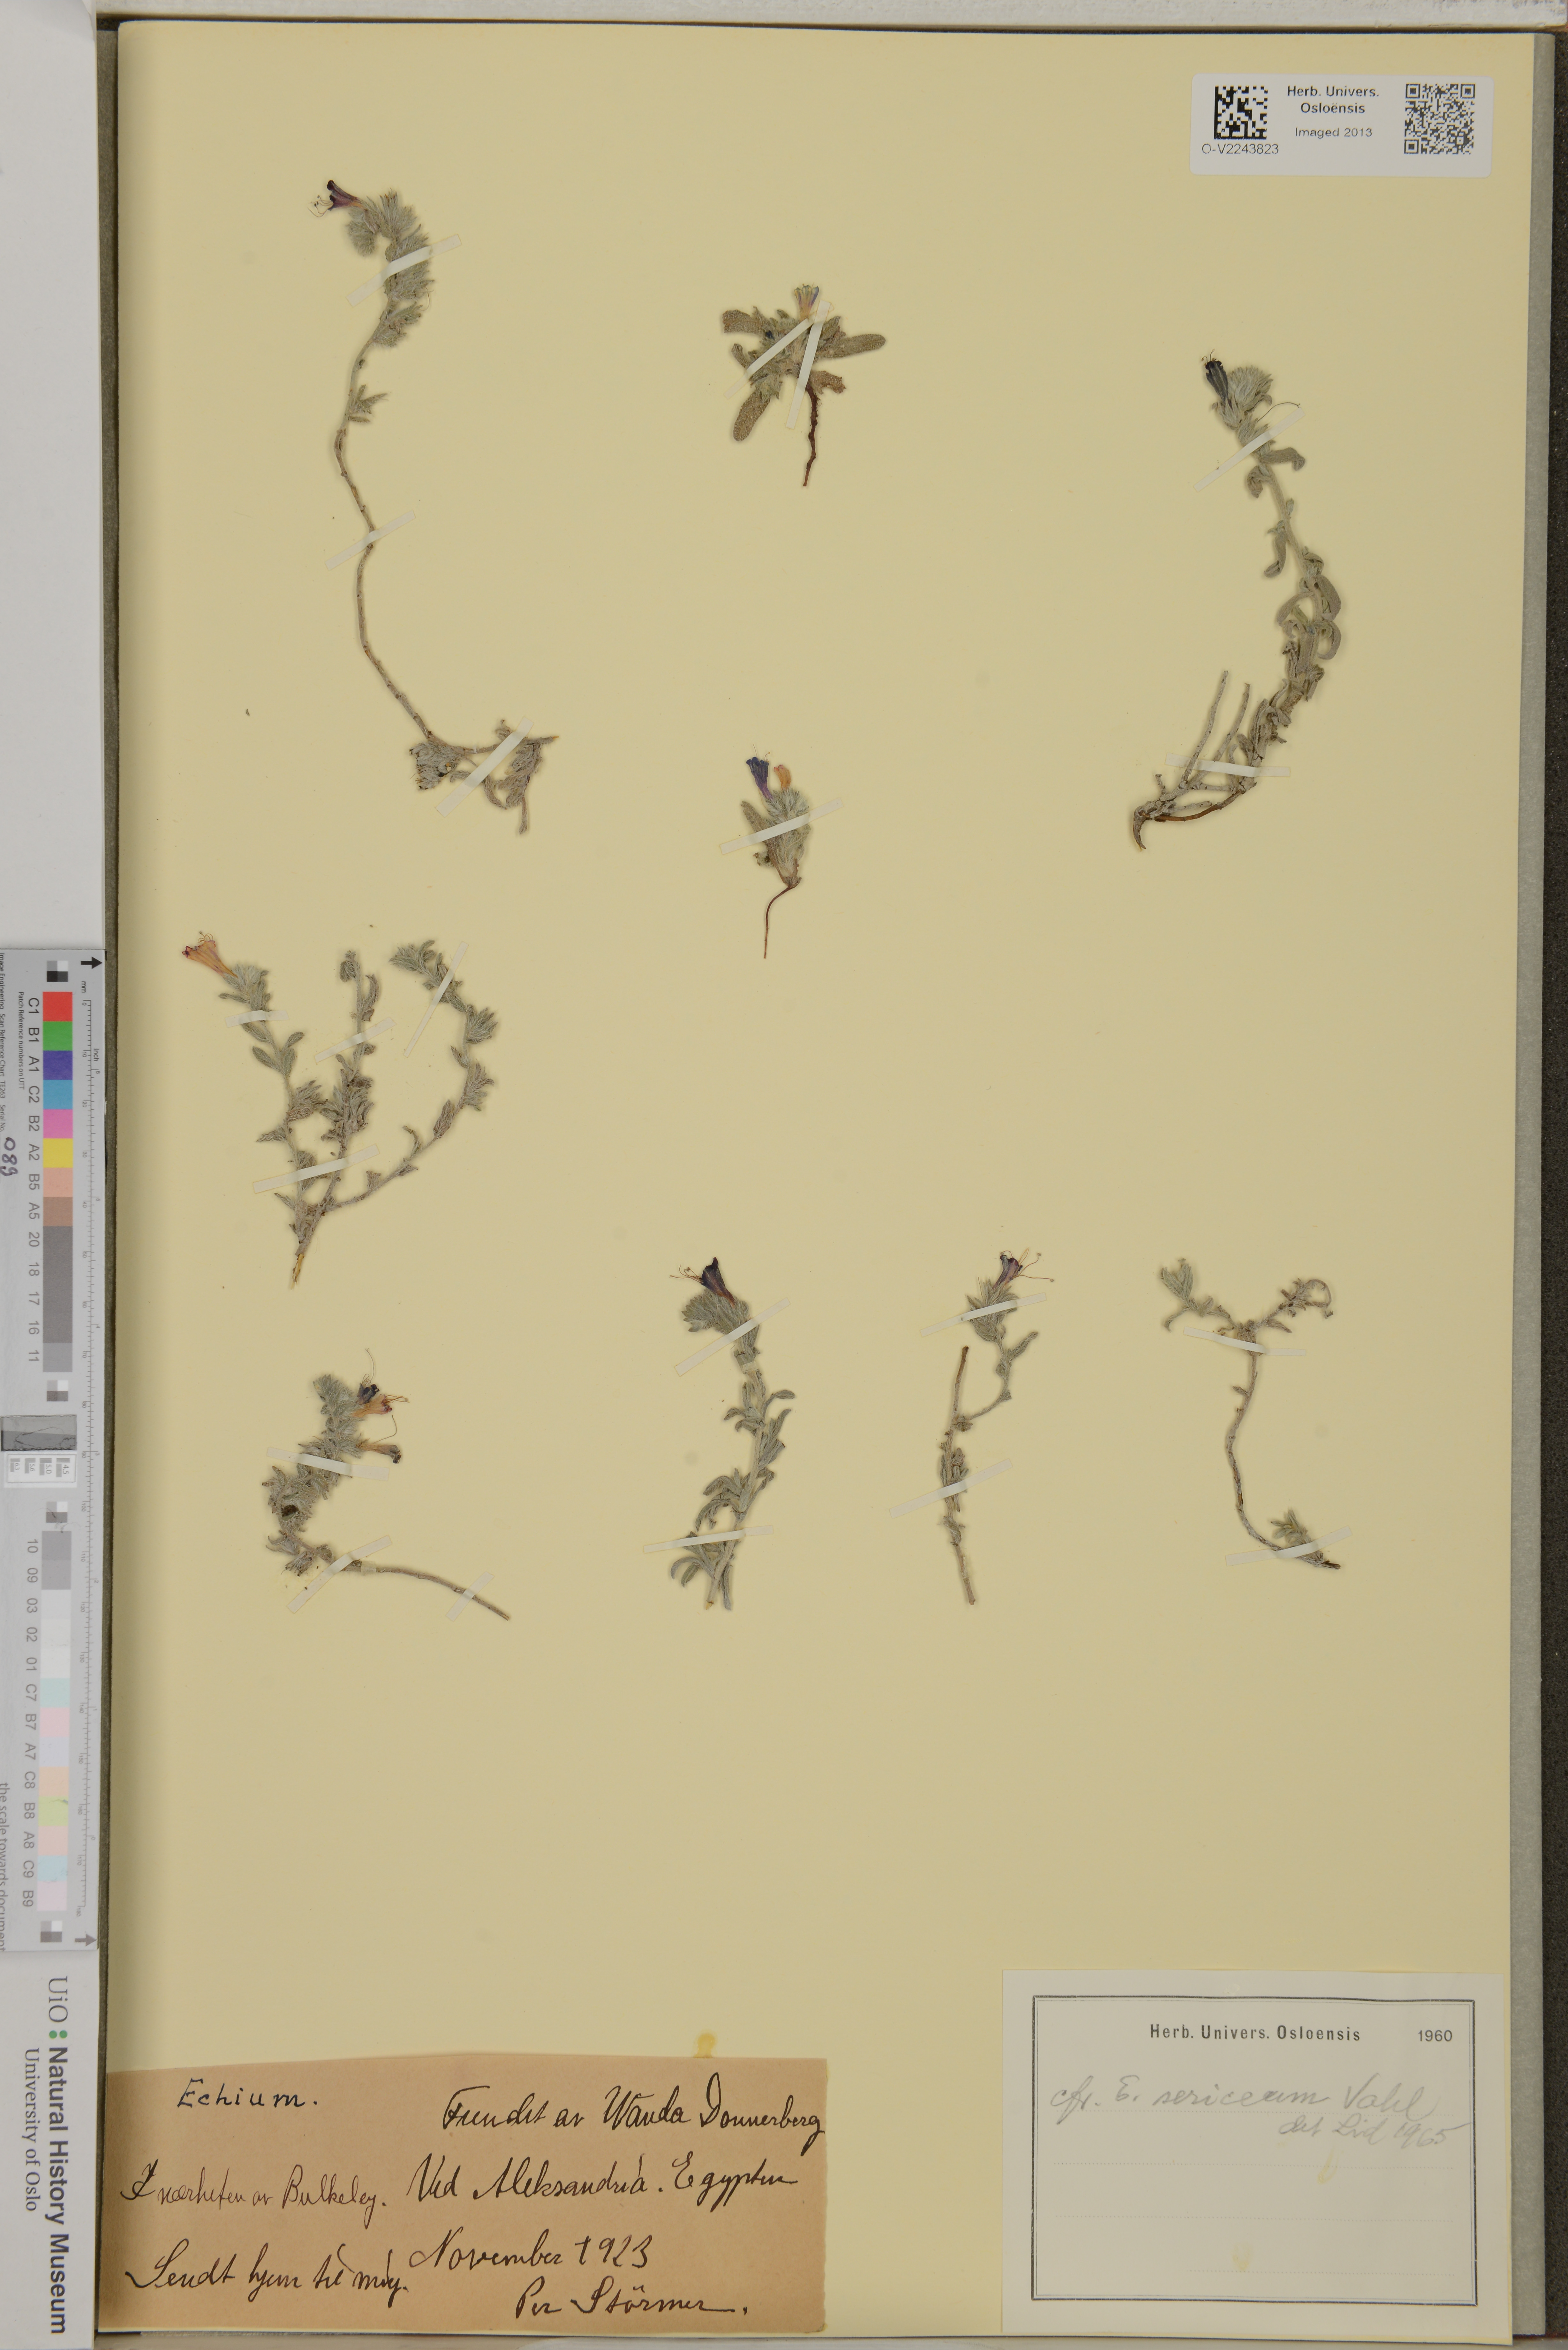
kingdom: Plantae
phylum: Tracheophyta
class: Magnoliopsida
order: Boraginales
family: Boraginaceae
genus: Echium
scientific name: Echium angustifolium
